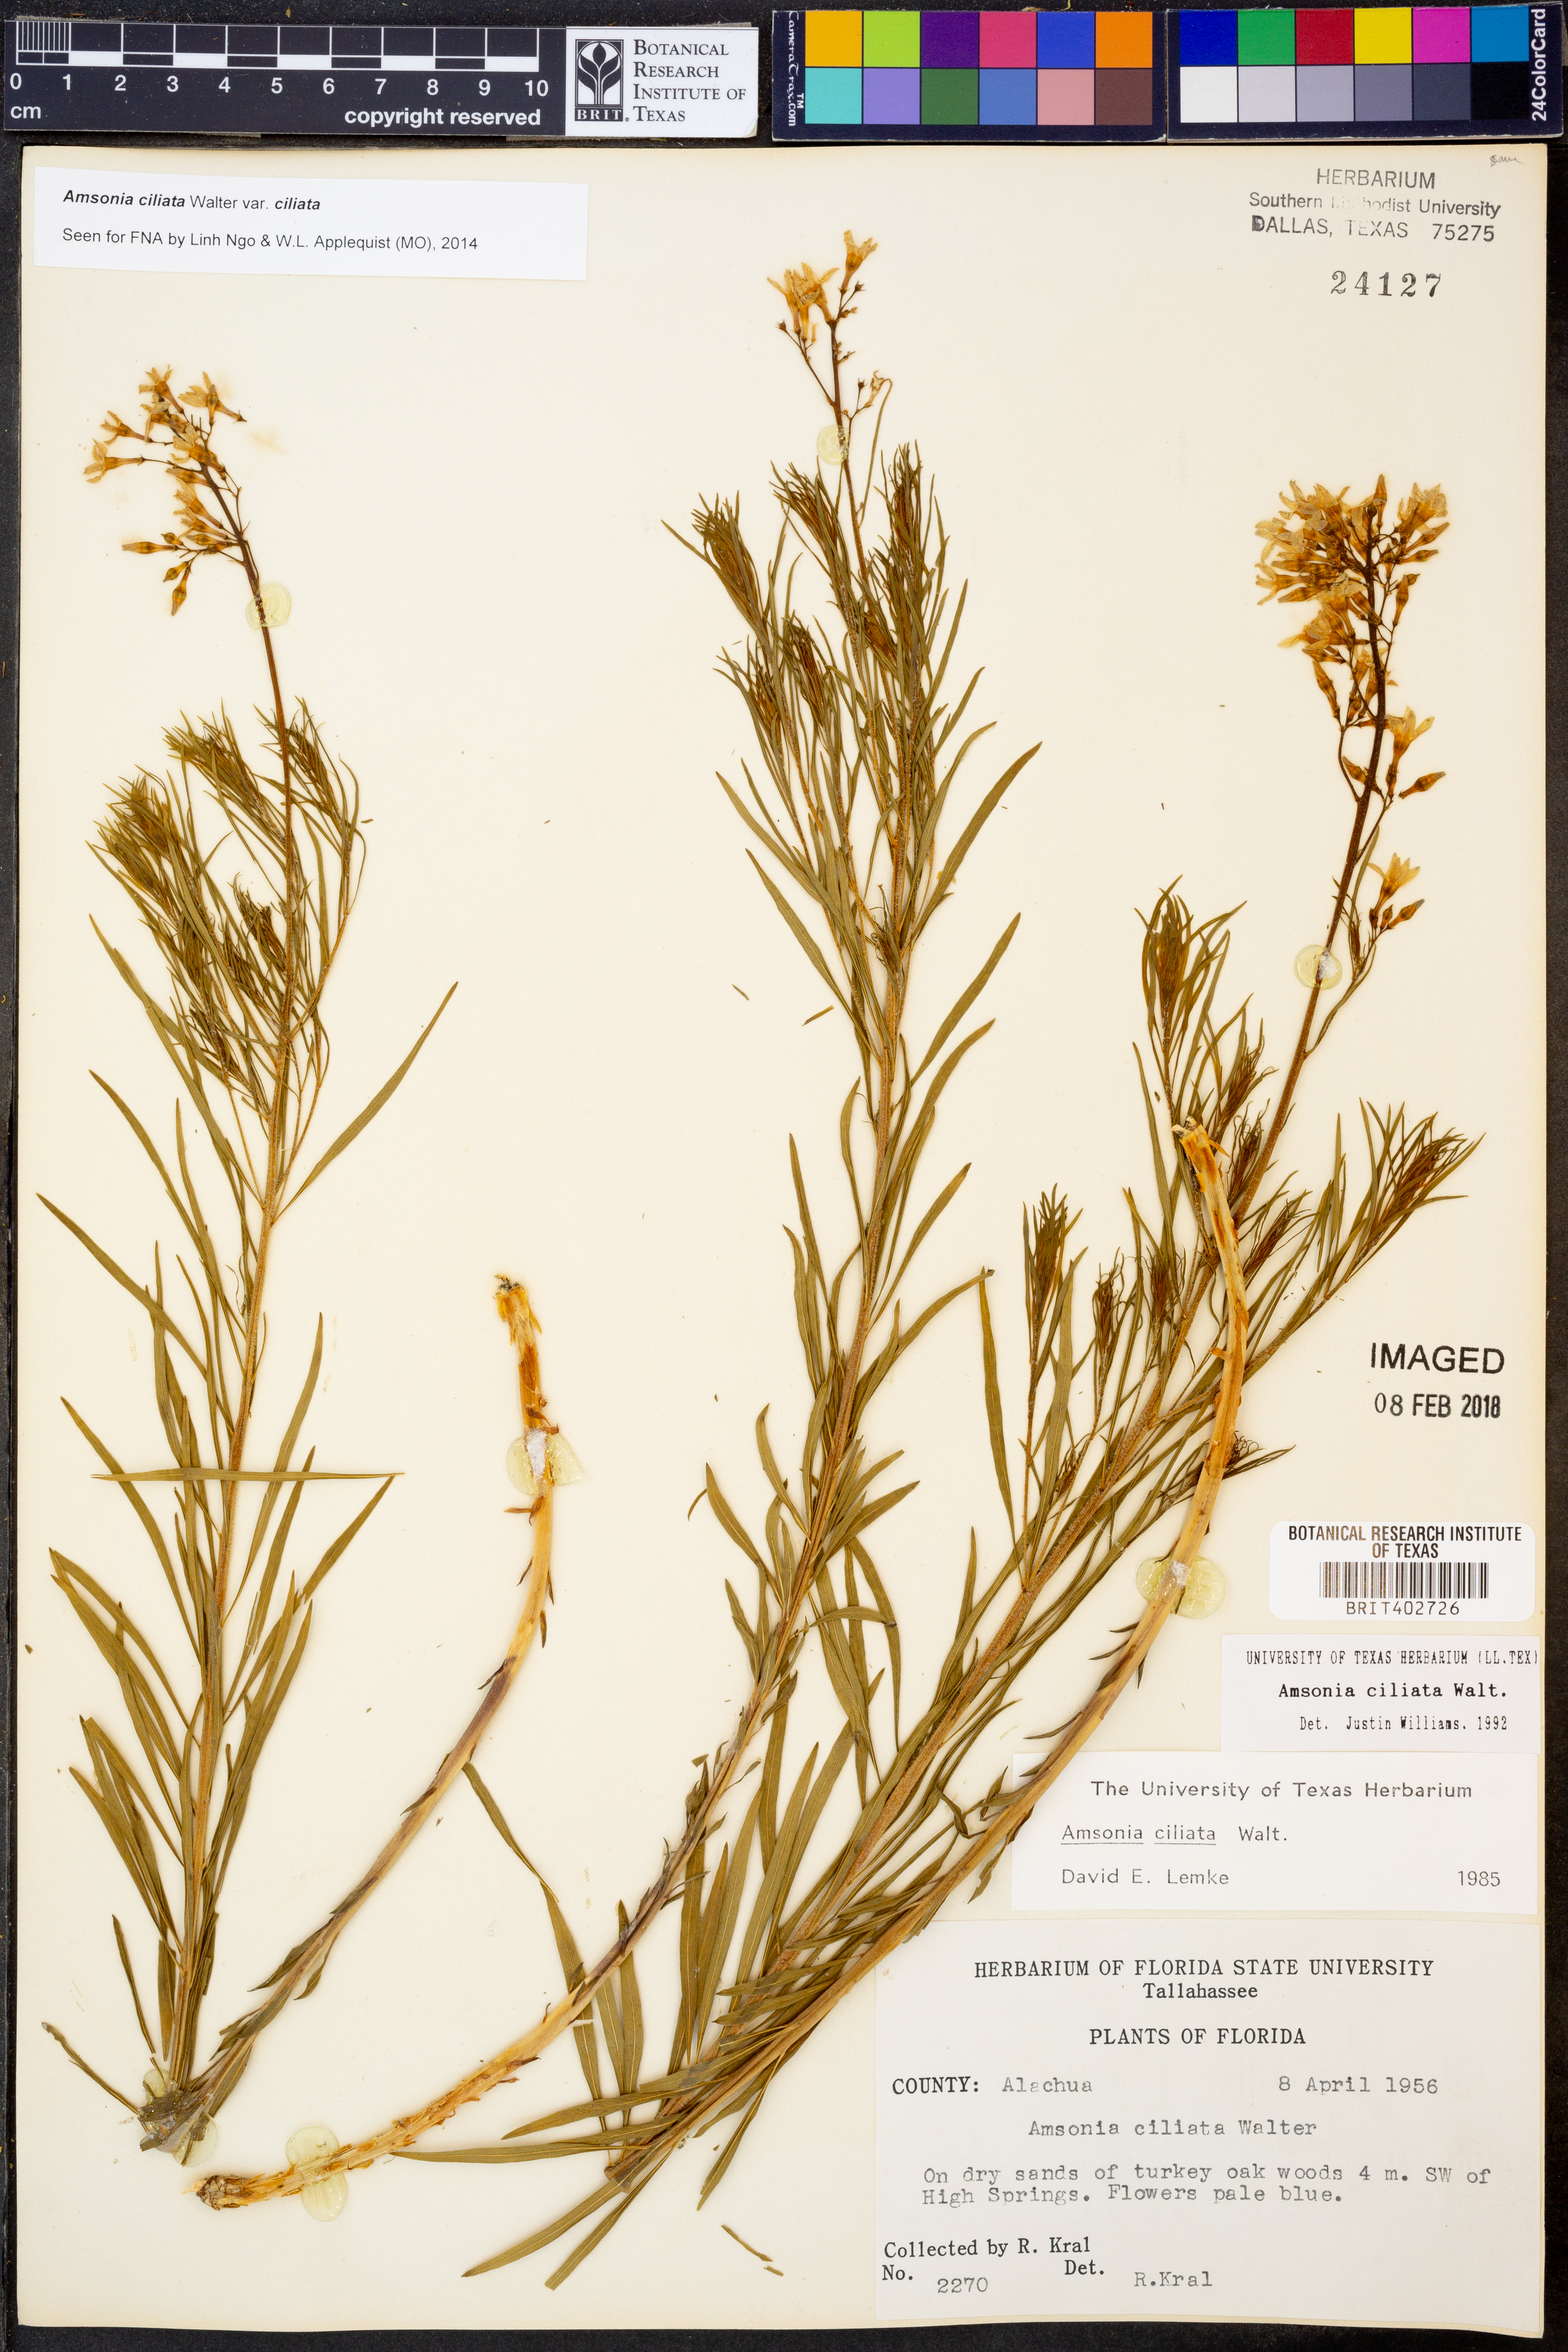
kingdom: Plantae
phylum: Tracheophyta
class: Magnoliopsida
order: Gentianales
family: Apocynaceae
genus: Amsonia
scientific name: Amsonia ciliata
